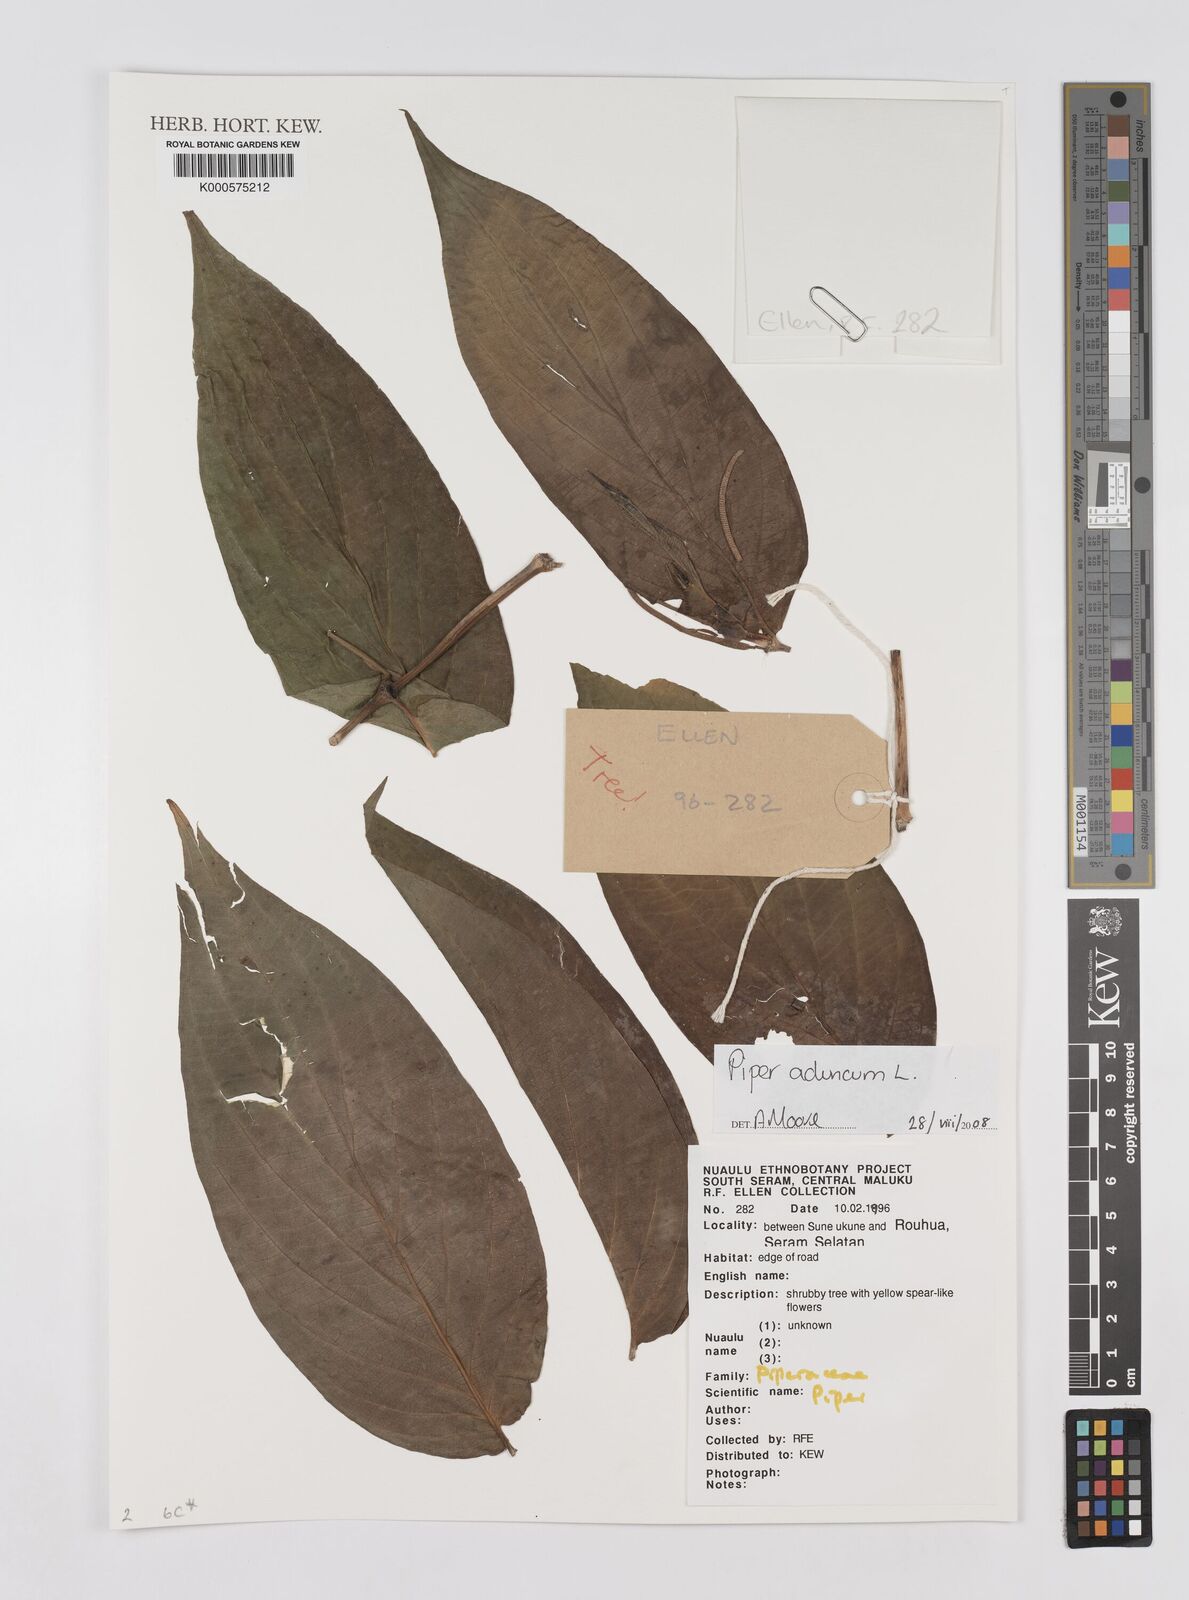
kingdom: Plantae
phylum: Tracheophyta
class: Magnoliopsida
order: Piperales
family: Piperaceae
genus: Piper
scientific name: Piper aduncum
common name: Spiked pepper
